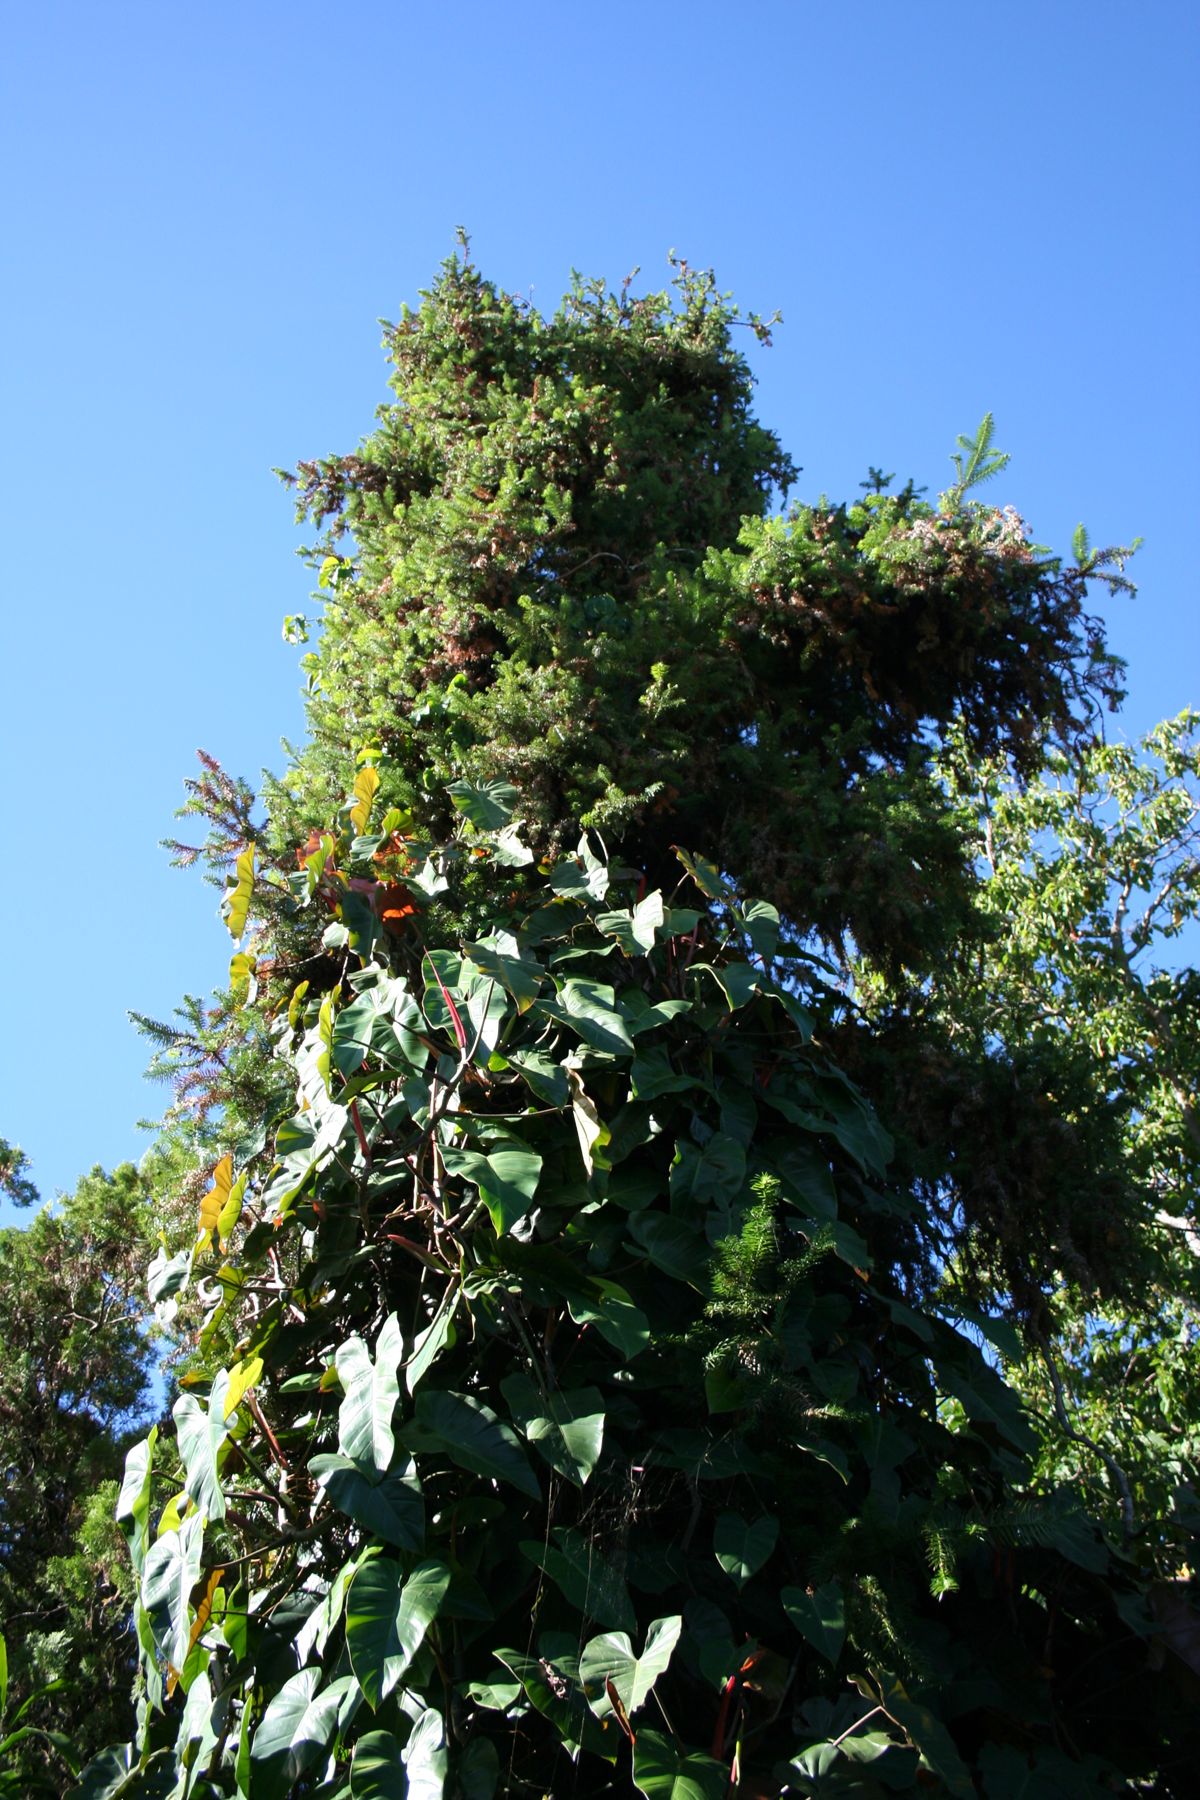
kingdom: Plantae
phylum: Tracheophyta
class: Pinopsida
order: Pinales
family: Cupressaceae
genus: Cunninghamia
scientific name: Cunninghamia lanceolata
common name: Chinese fir
